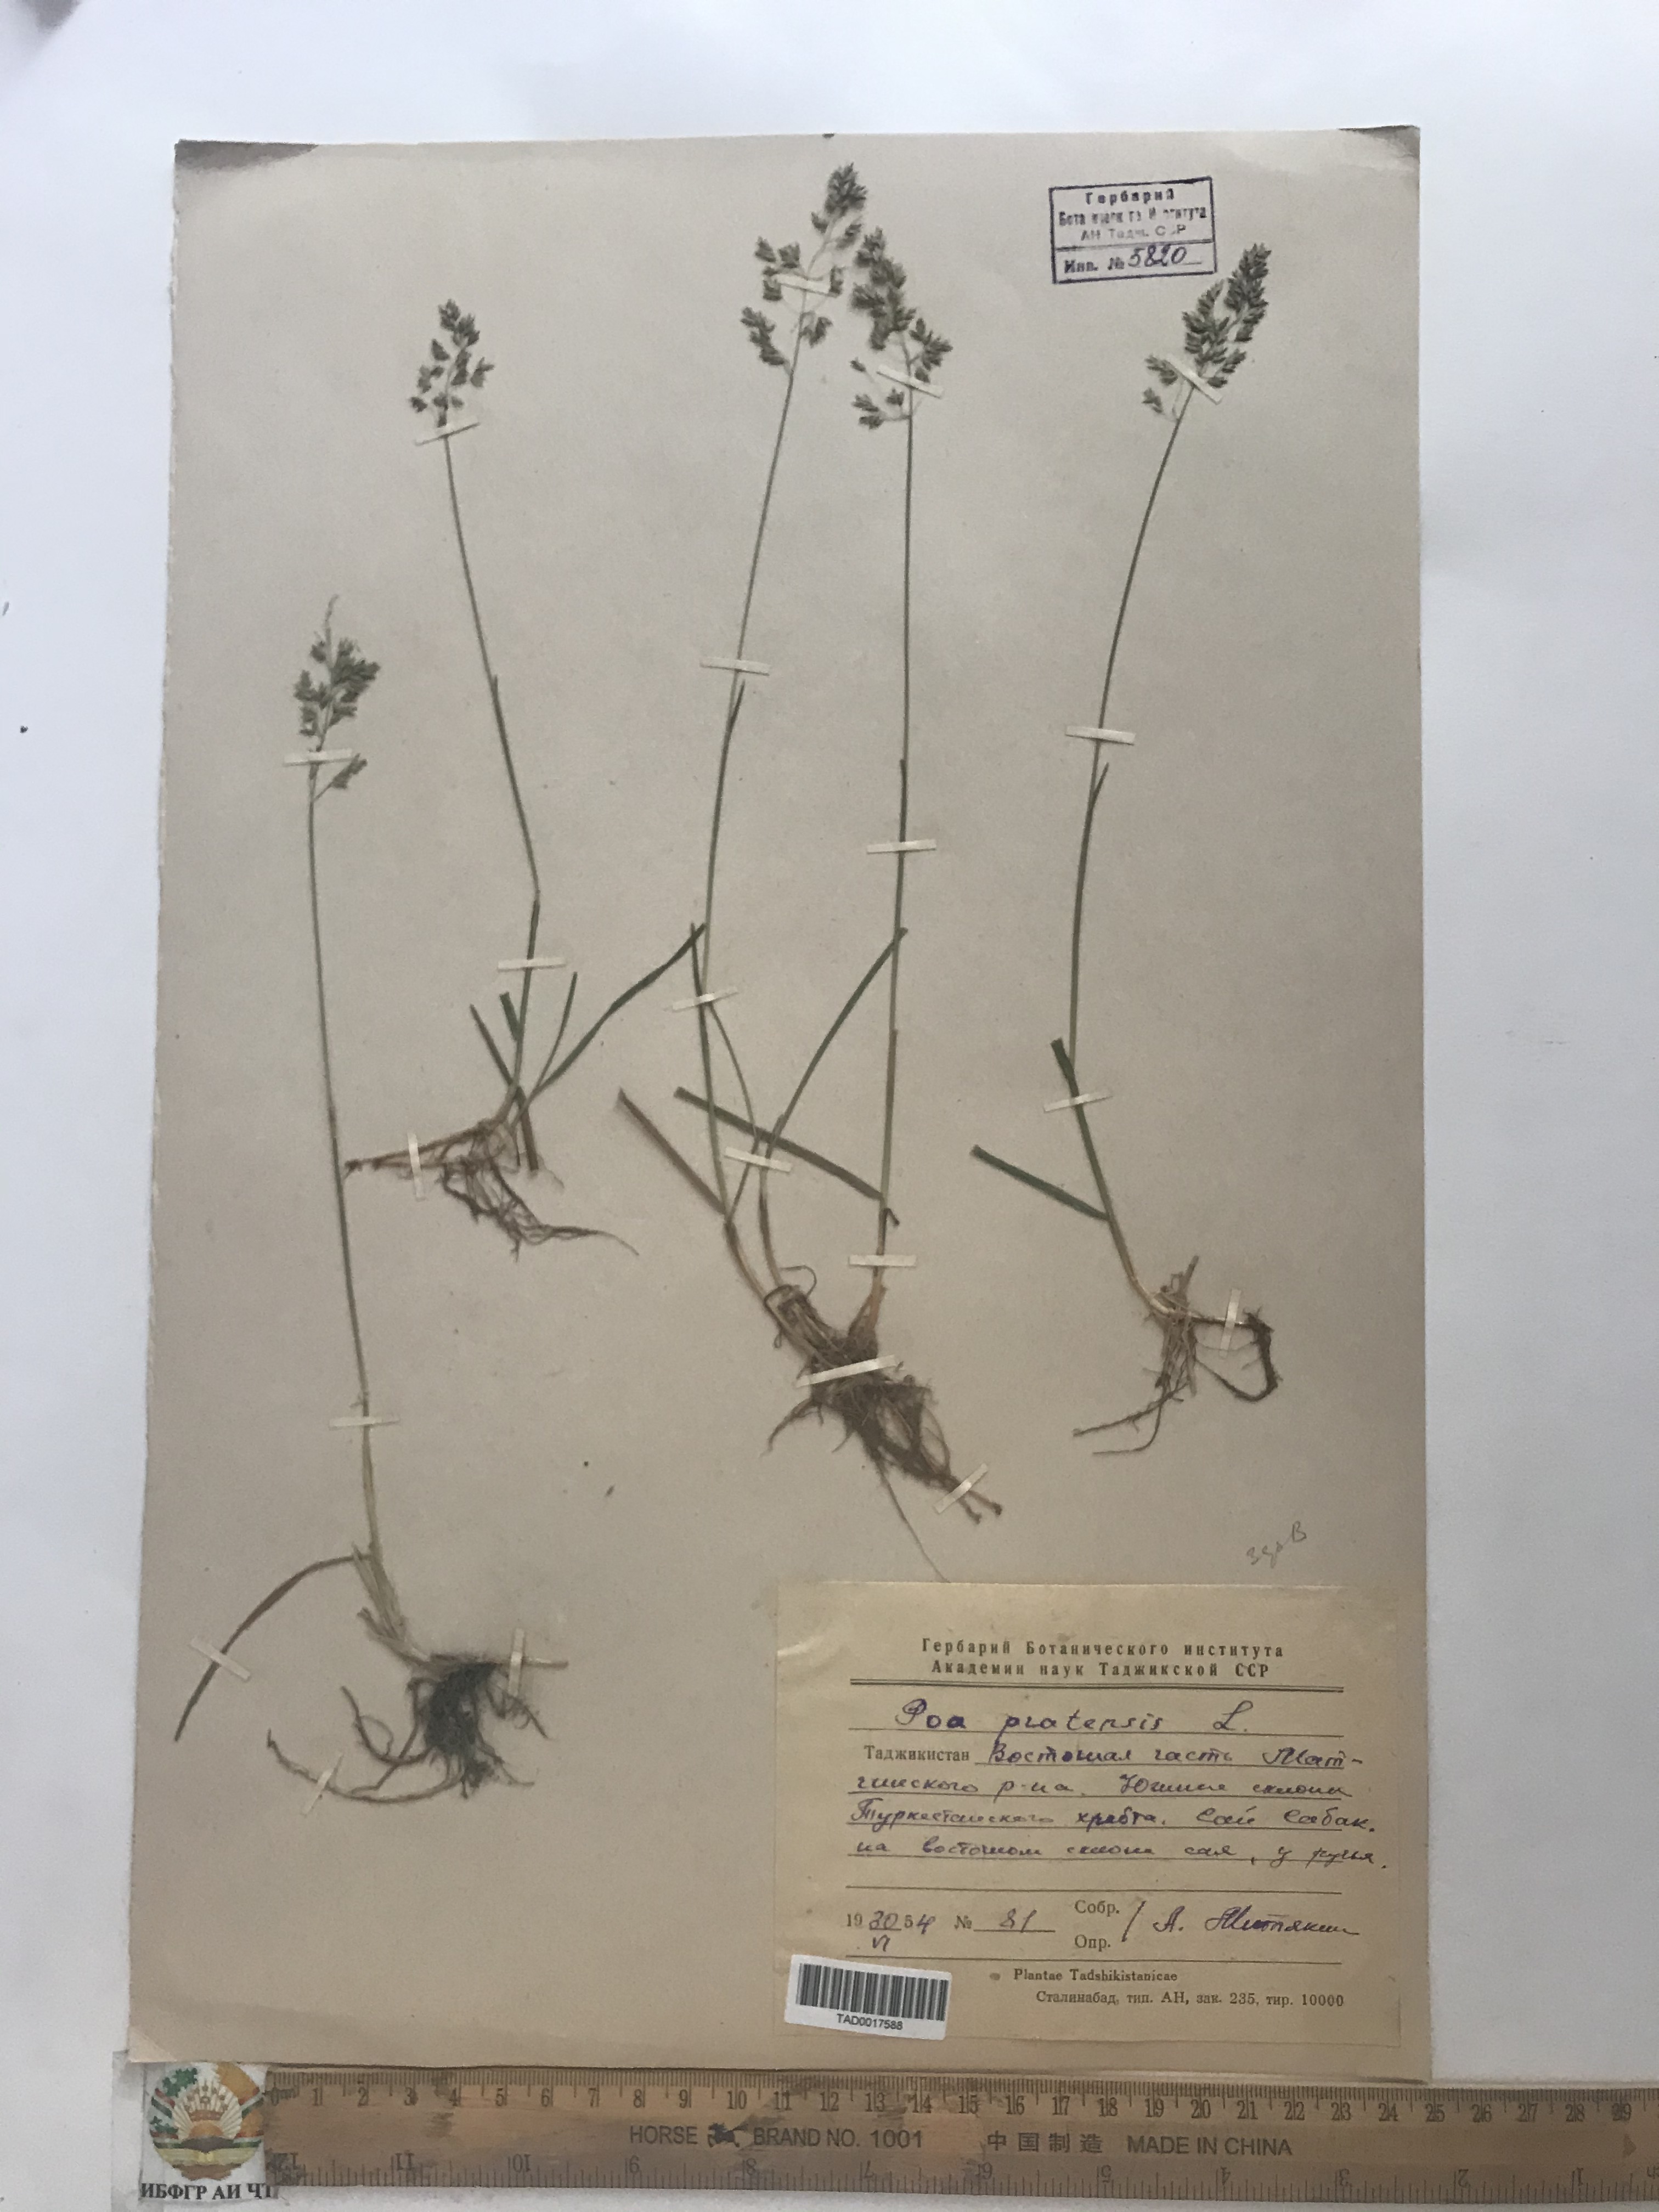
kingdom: Plantae
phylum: Tracheophyta
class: Liliopsida
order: Poales
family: Poaceae
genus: Poa
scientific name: Poa pratensis
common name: Kentucky bluegrass
